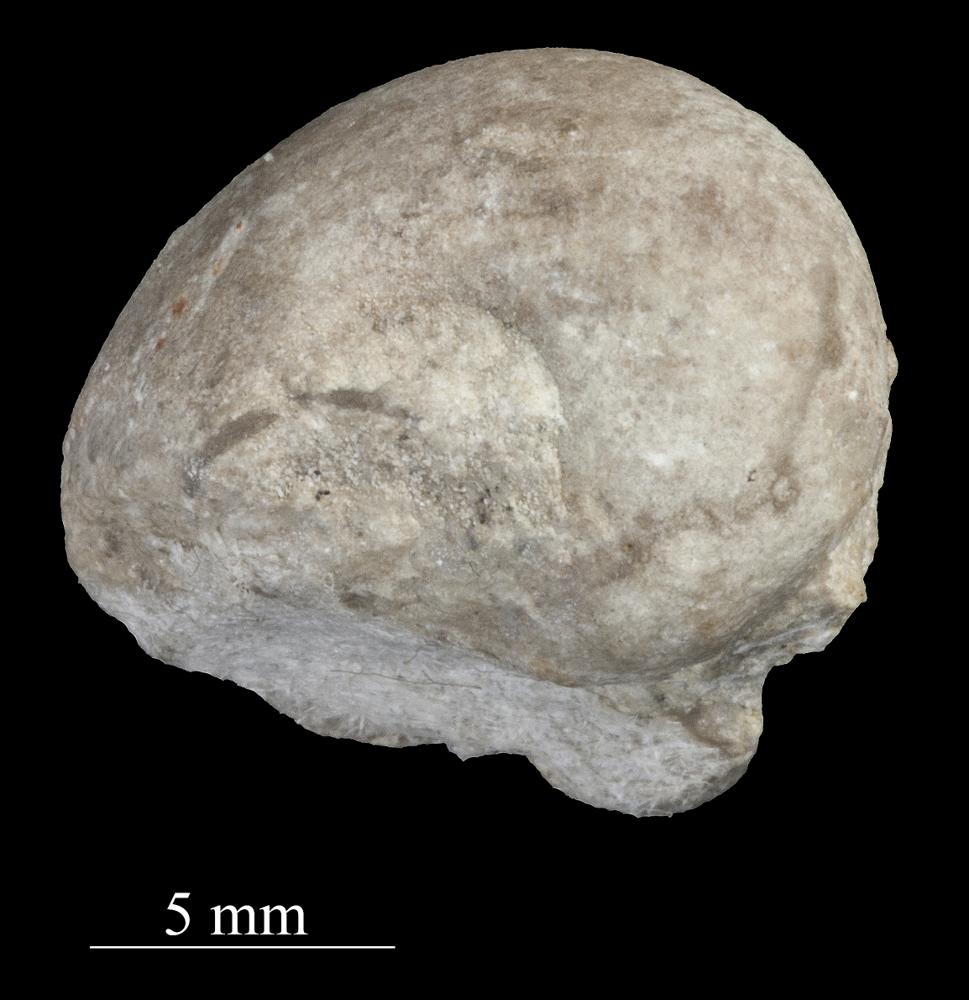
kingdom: Animalia
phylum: Mollusca
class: Gastropoda
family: Sinuitidae
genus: Sinuites
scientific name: Sinuites bilobatus
